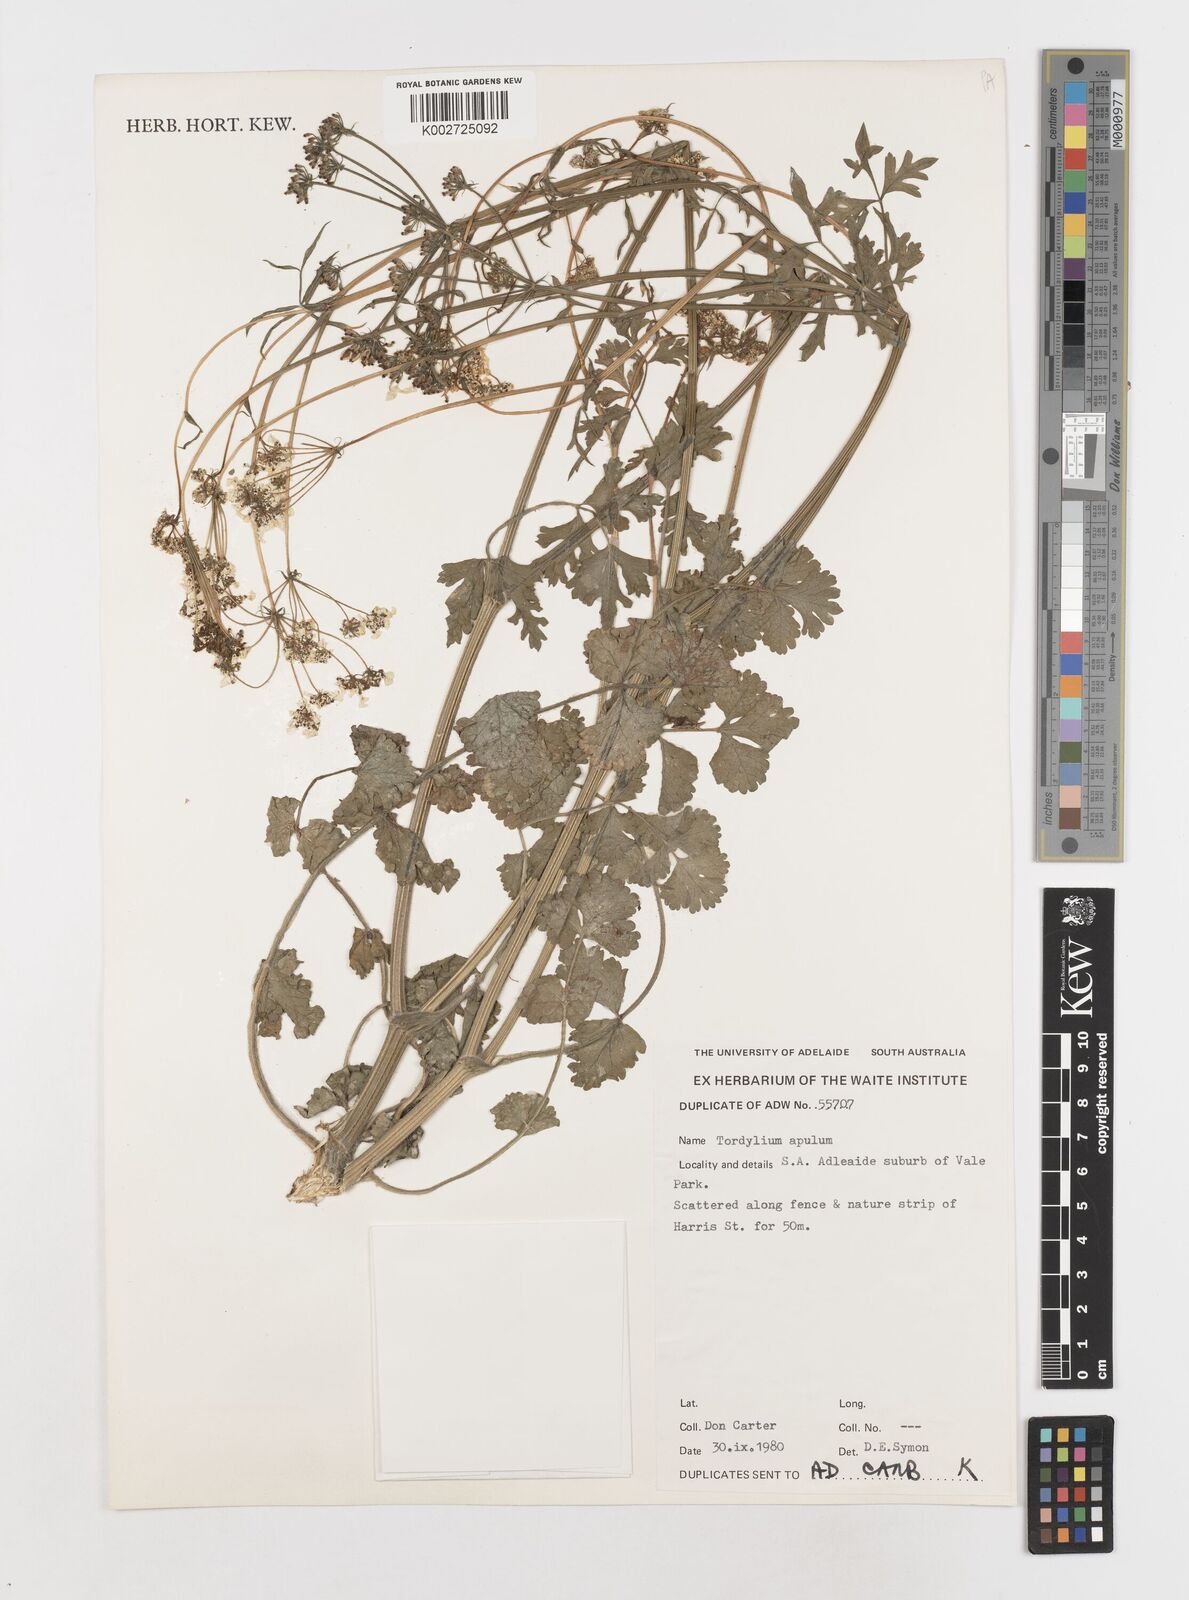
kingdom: Plantae
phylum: Tracheophyta
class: Magnoliopsida
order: Apiales
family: Apiaceae
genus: Tordylium
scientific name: Tordylium
